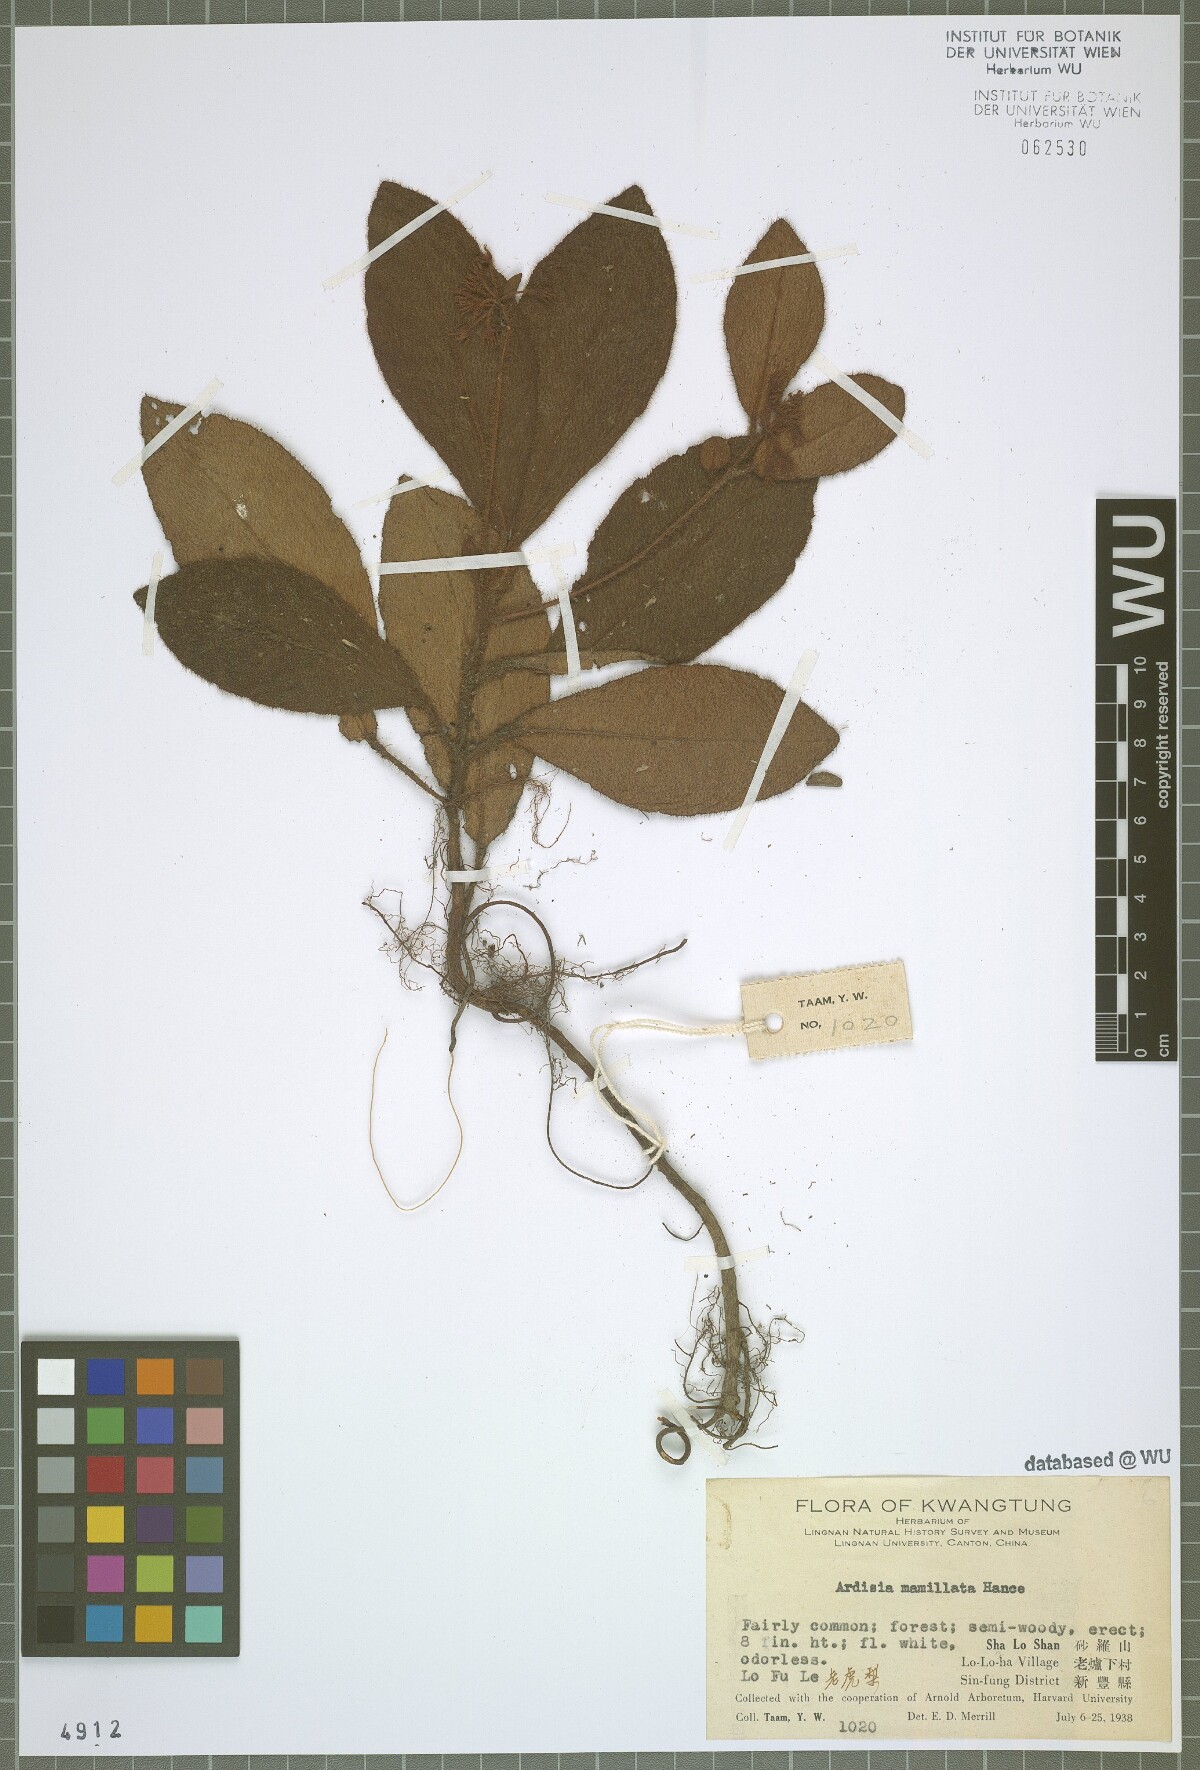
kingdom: Plantae
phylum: Tracheophyta
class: Magnoliopsida
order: Ericales
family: Primulaceae
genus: Ardisia
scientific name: Ardisia mamillata
